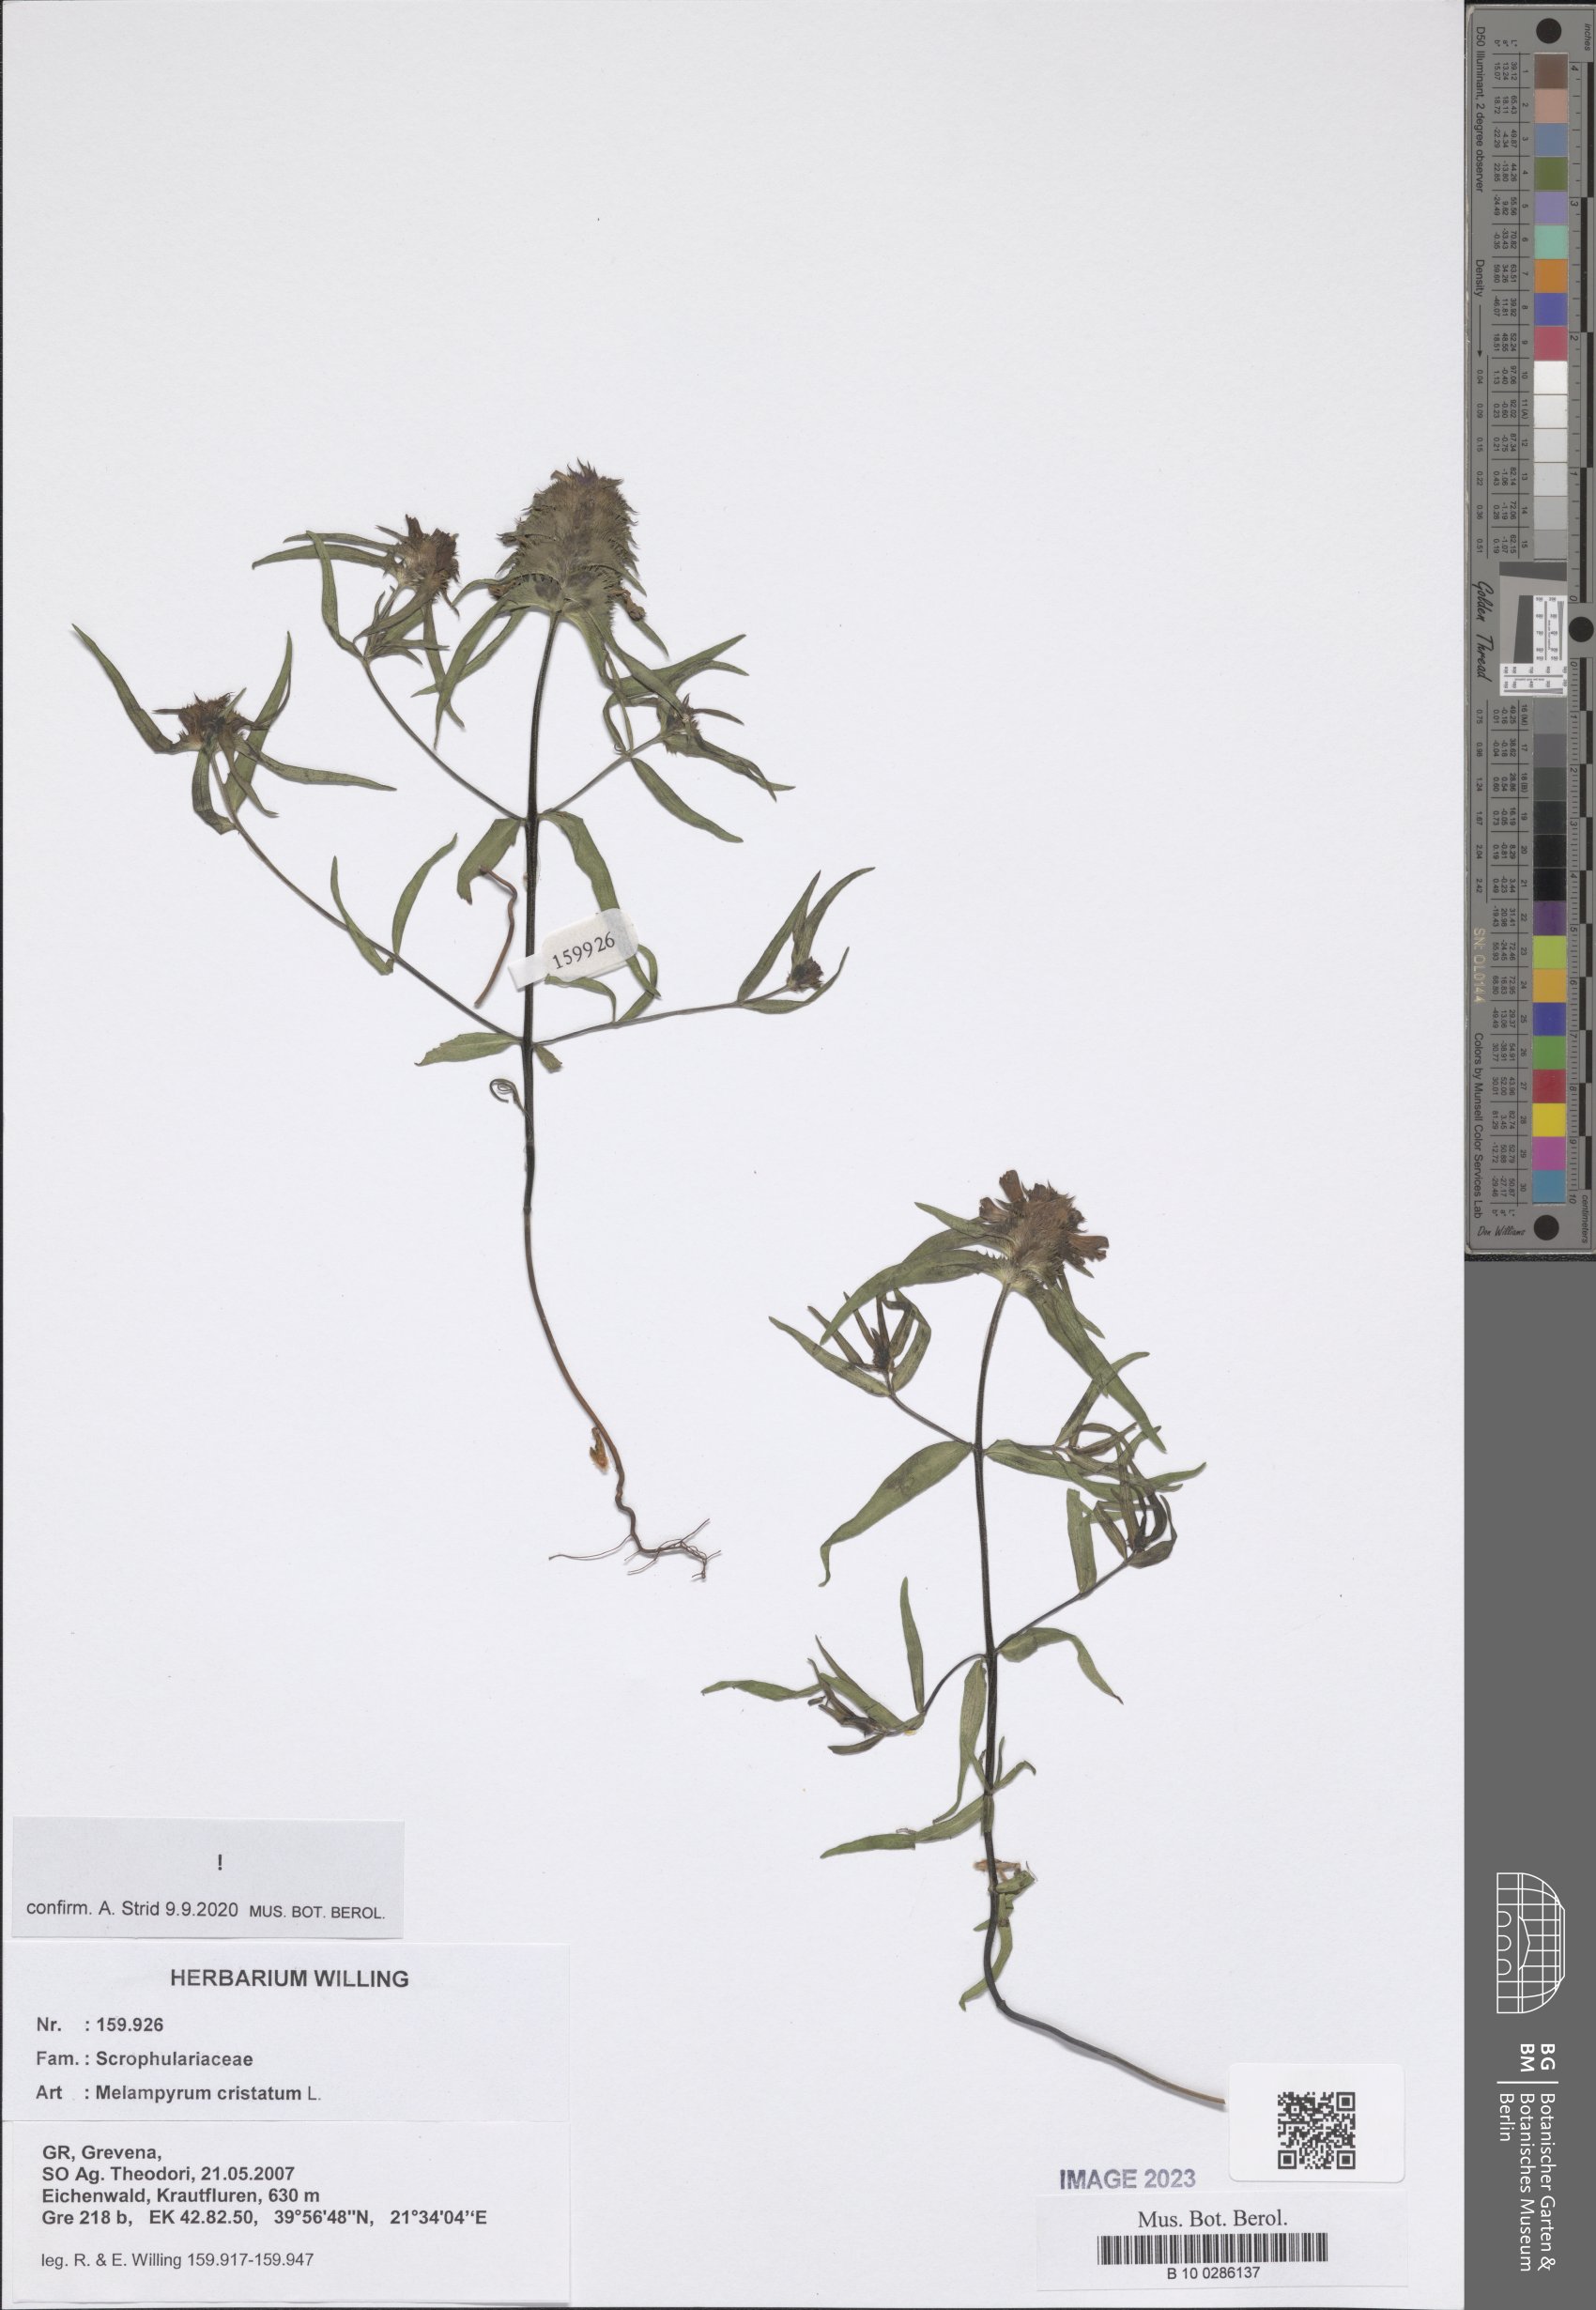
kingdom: Plantae
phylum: Tracheophyta
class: Magnoliopsida
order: Lamiales
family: Orobanchaceae
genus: Melampyrum
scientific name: Melampyrum cristatum
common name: Crested cow-wheat
